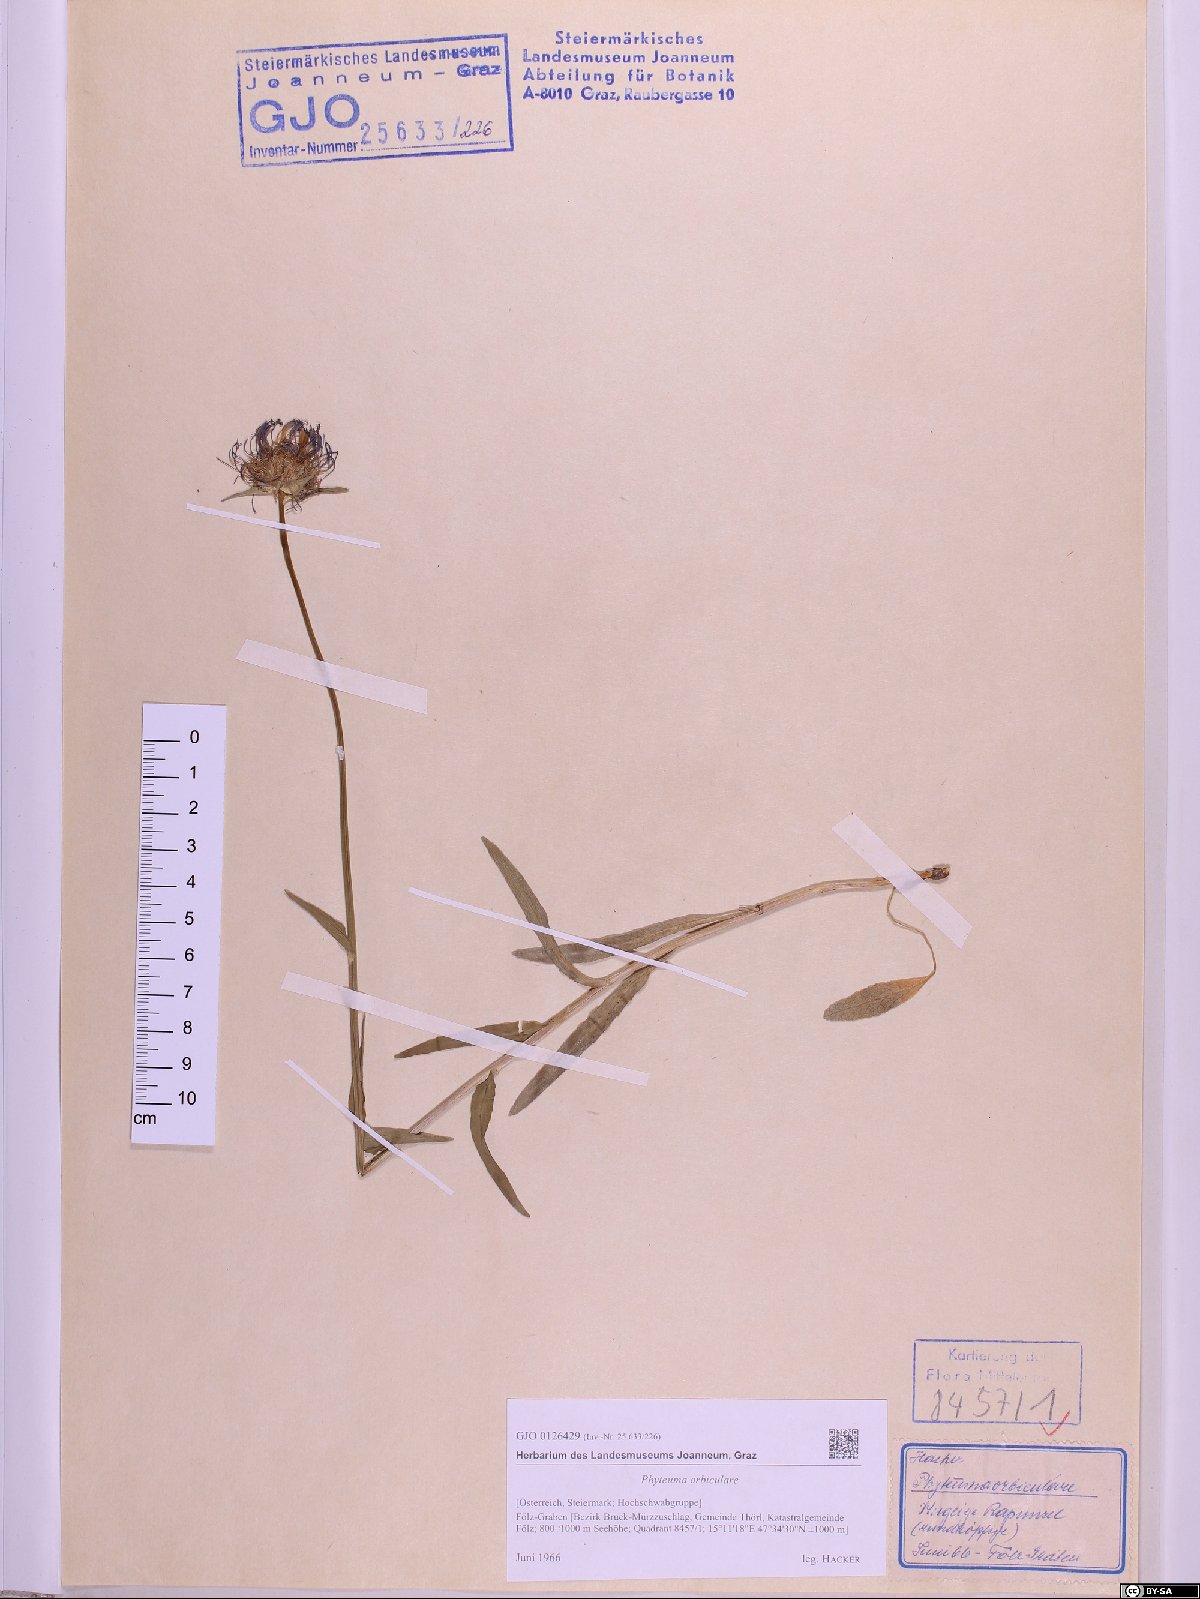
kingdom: Plantae
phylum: Tracheophyta
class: Magnoliopsida
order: Asterales
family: Campanulaceae
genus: Phyteuma
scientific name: Phyteuma orbiculare
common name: Round-headed rampion
